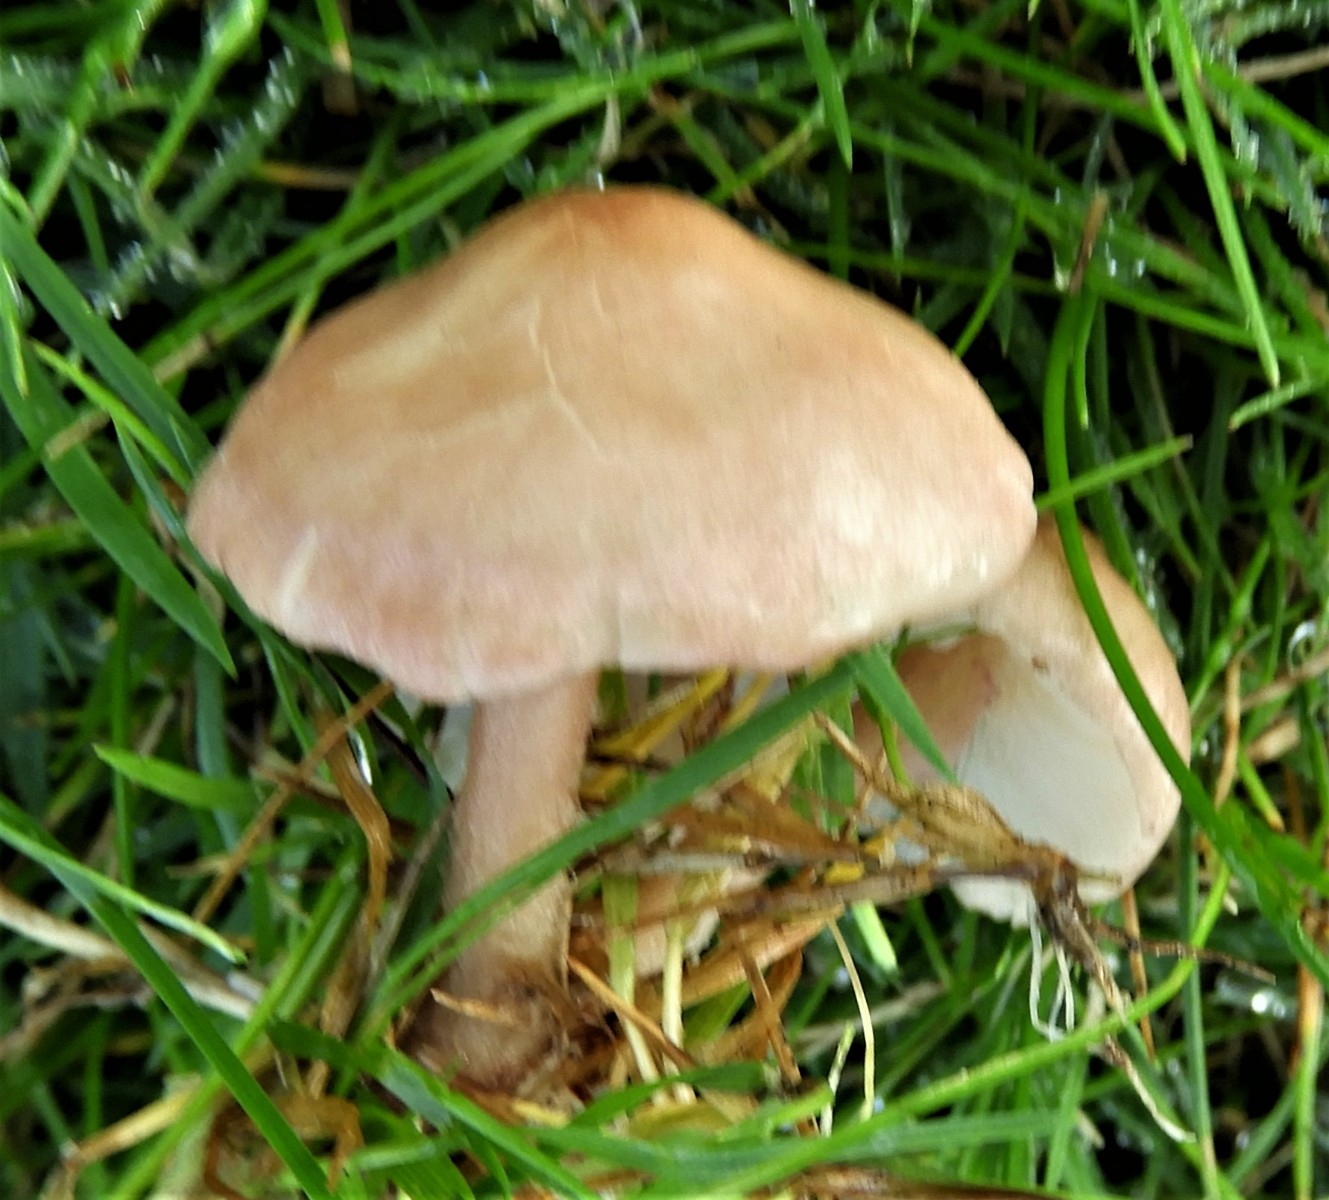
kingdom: Fungi
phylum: Basidiomycota
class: Agaricomycetes
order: Agaricales
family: Lyophyllaceae
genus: Calocybe
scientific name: Calocybe carnea
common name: rosa fagerhat
